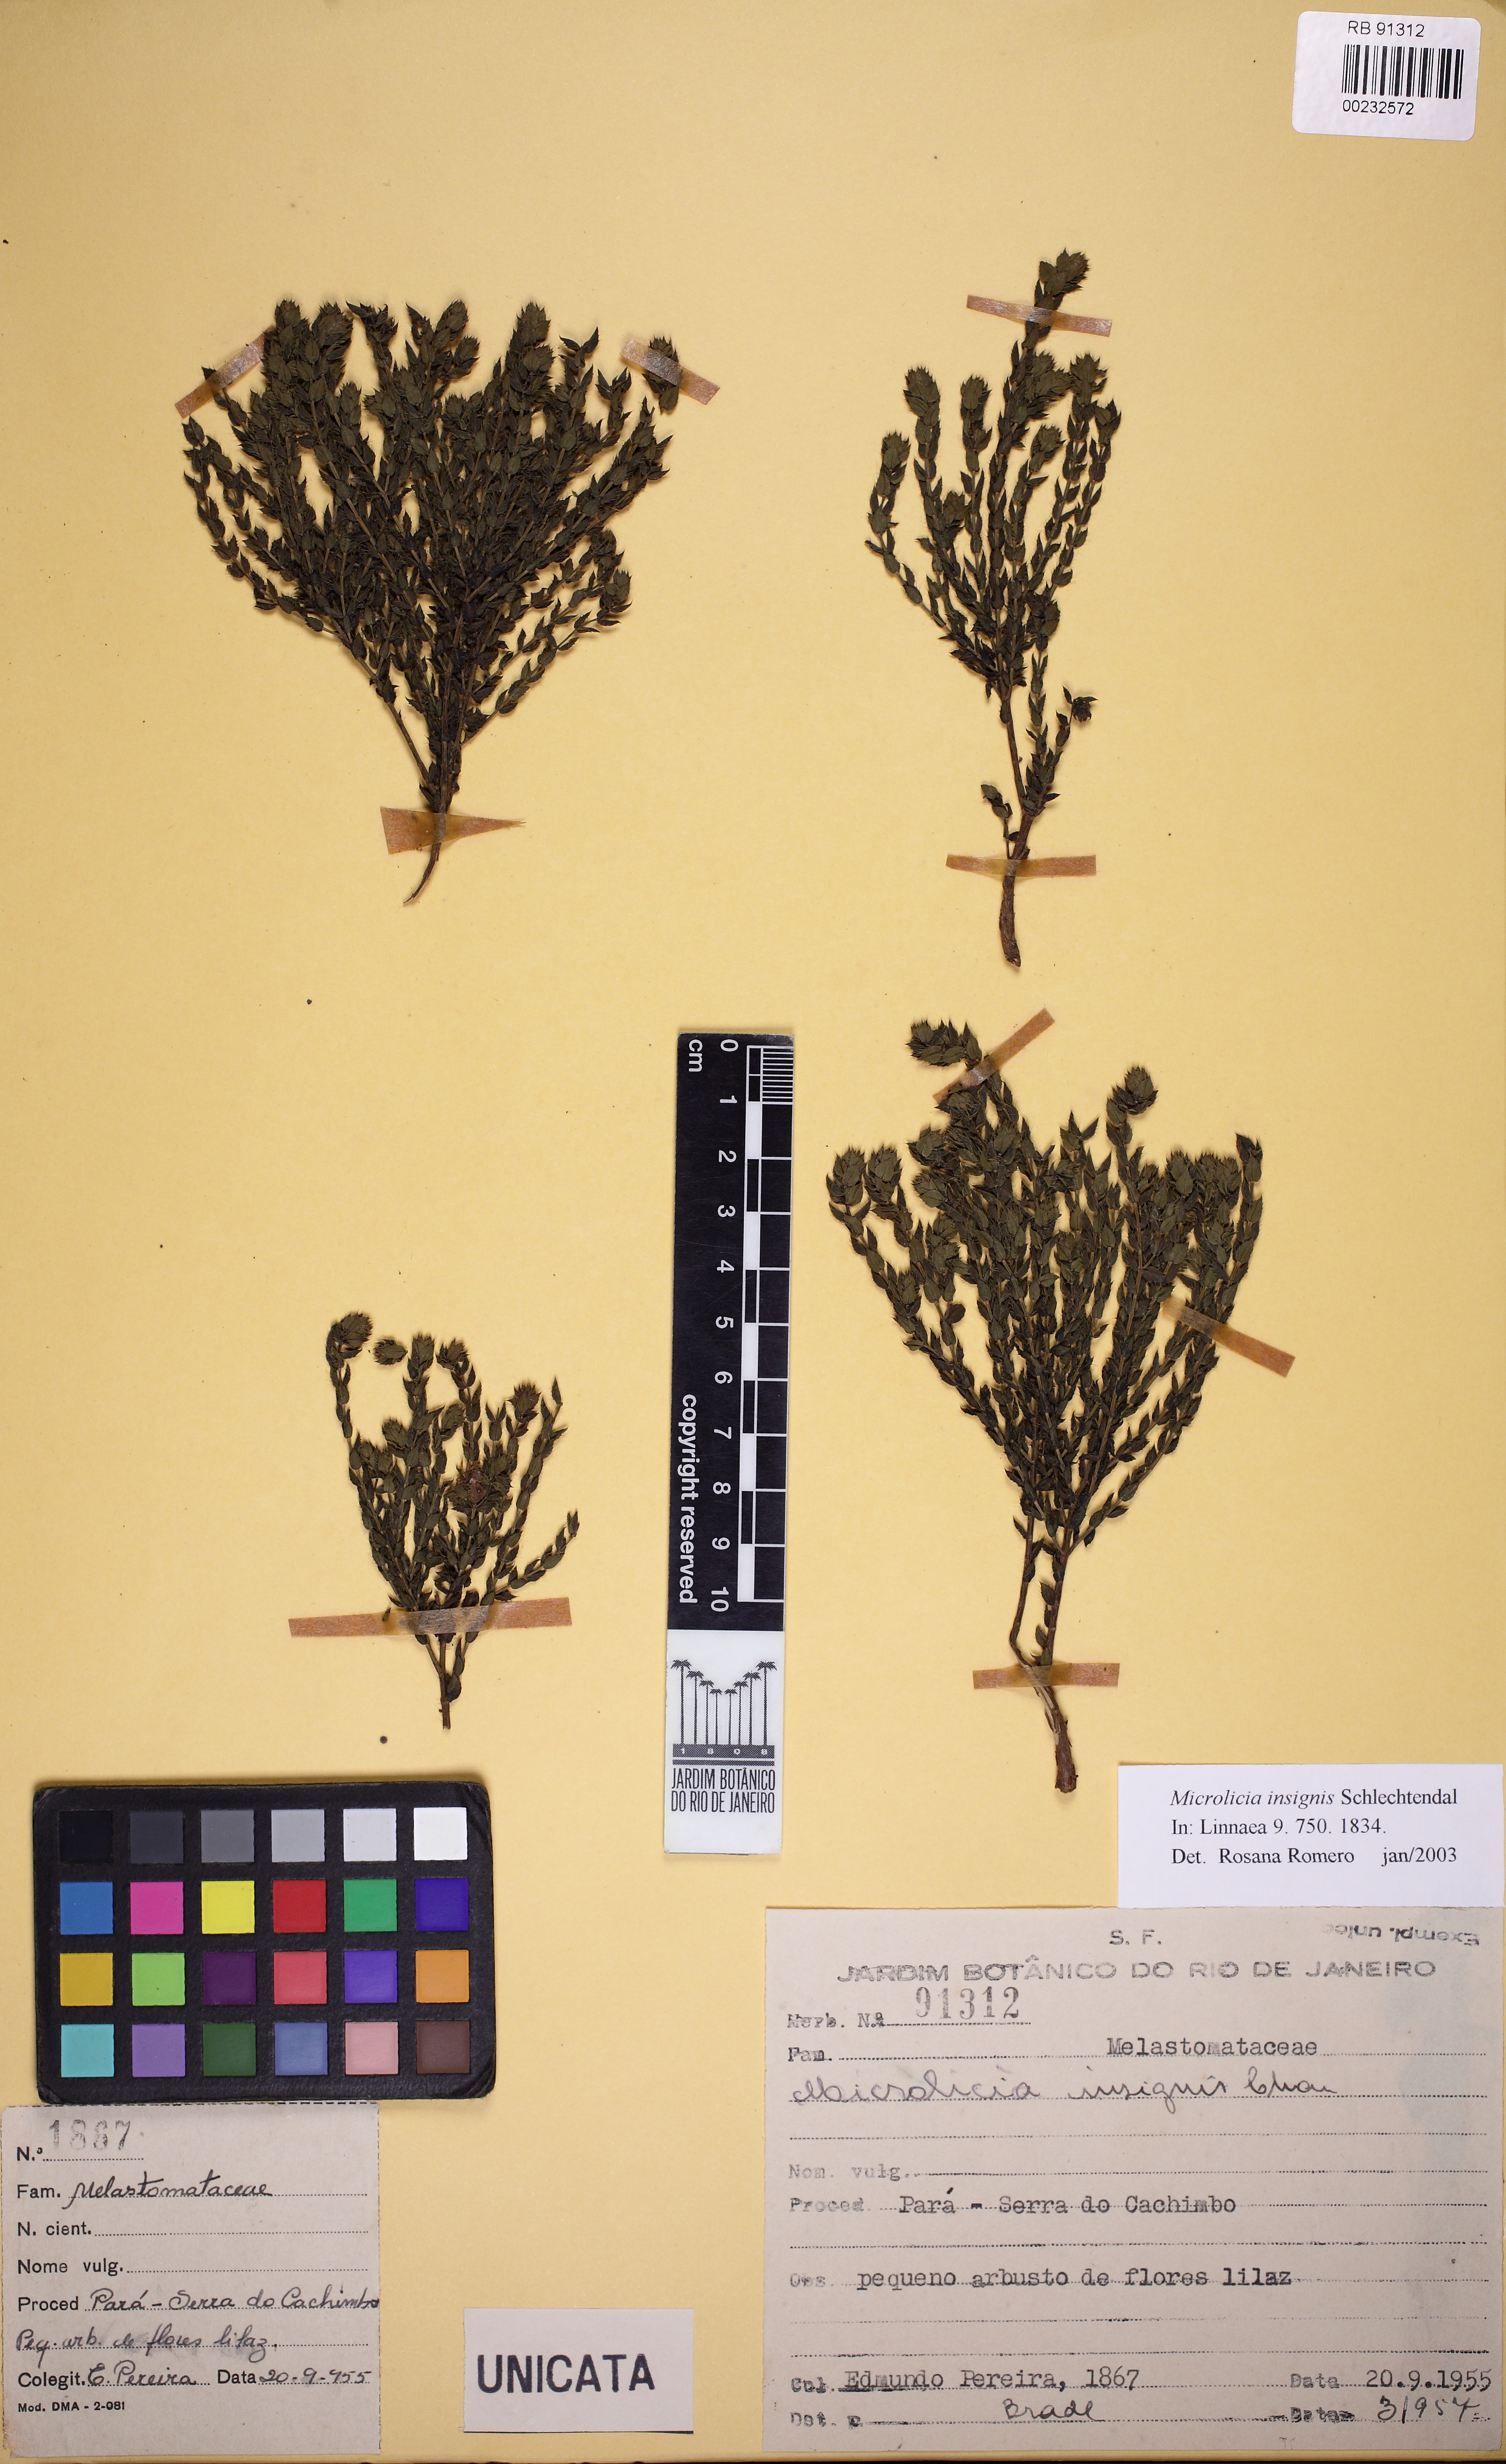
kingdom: Plantae
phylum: Tracheophyta
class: Magnoliopsida
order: Myrtales
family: Melastomataceae
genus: Microlicia
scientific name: Microlicia insignis
